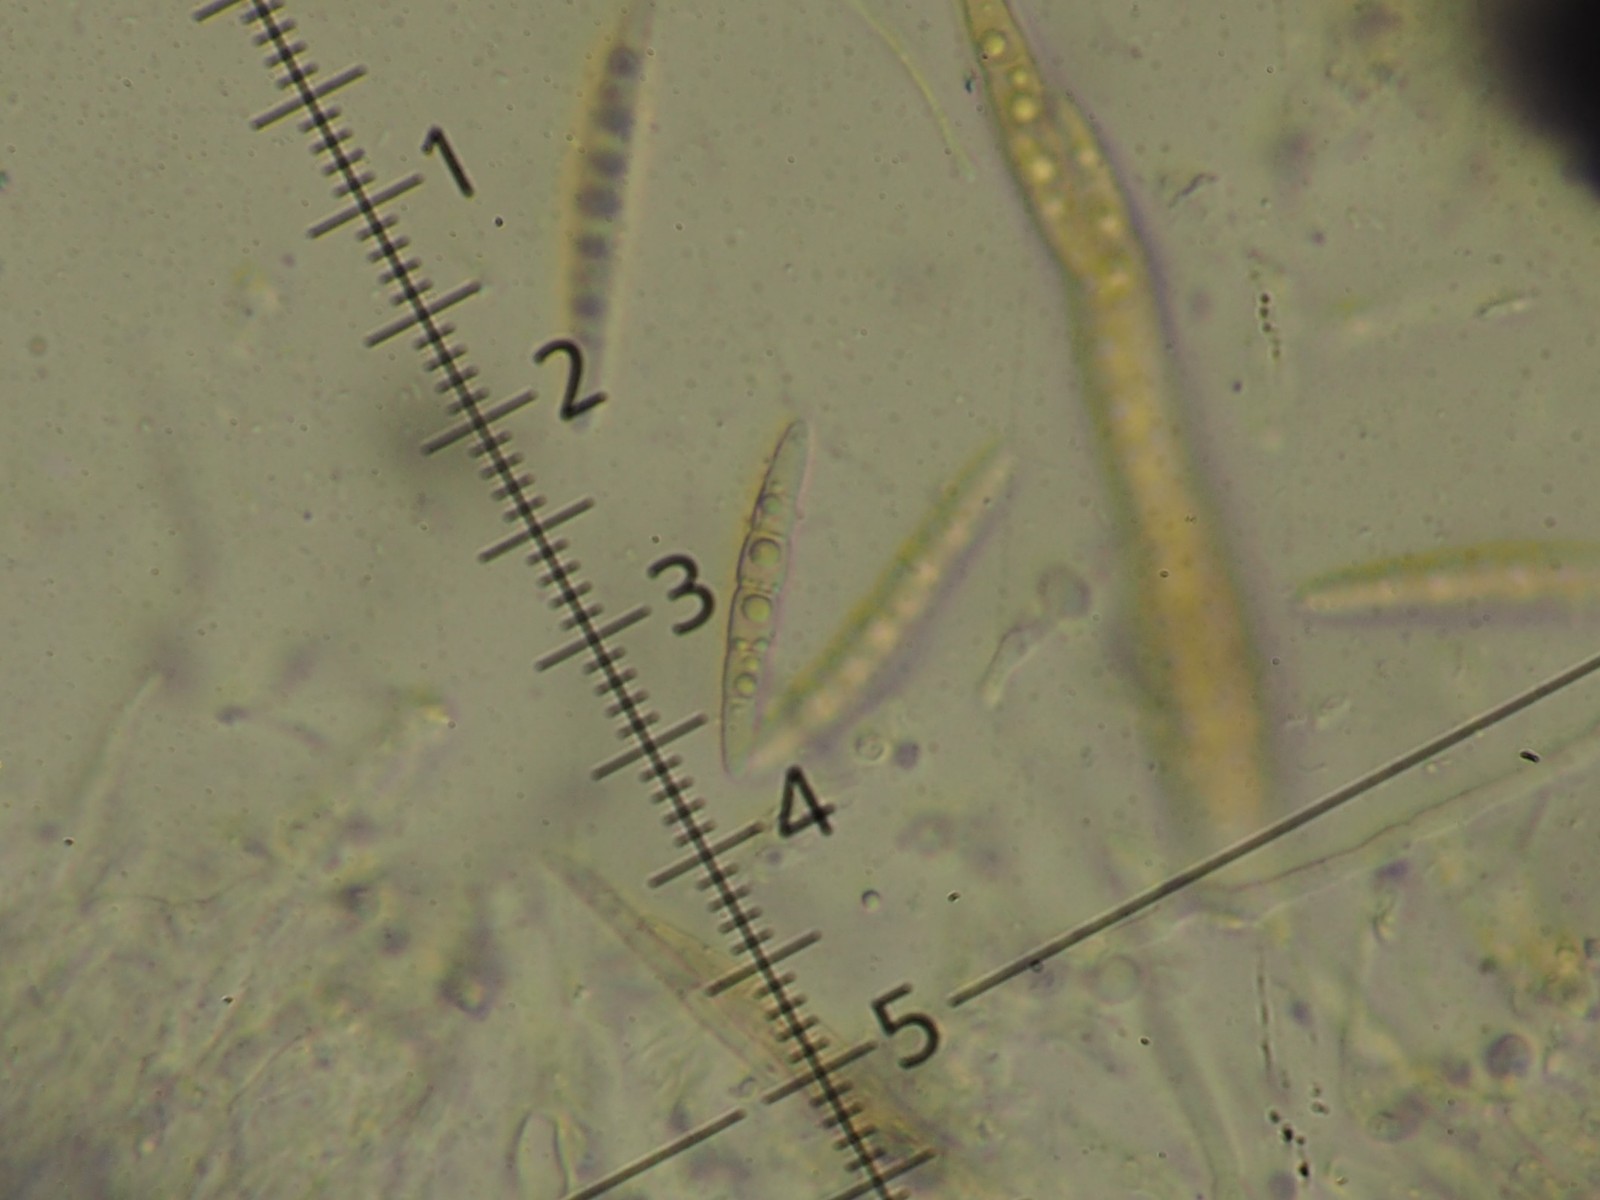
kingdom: Fungi
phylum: Ascomycota
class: Dothideomycetes
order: Pleosporales
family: Phaeosphaeriaceae
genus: Phaeosphaeria
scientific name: Phaeosphaeria sowerbyi
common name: kål-kulkegle
